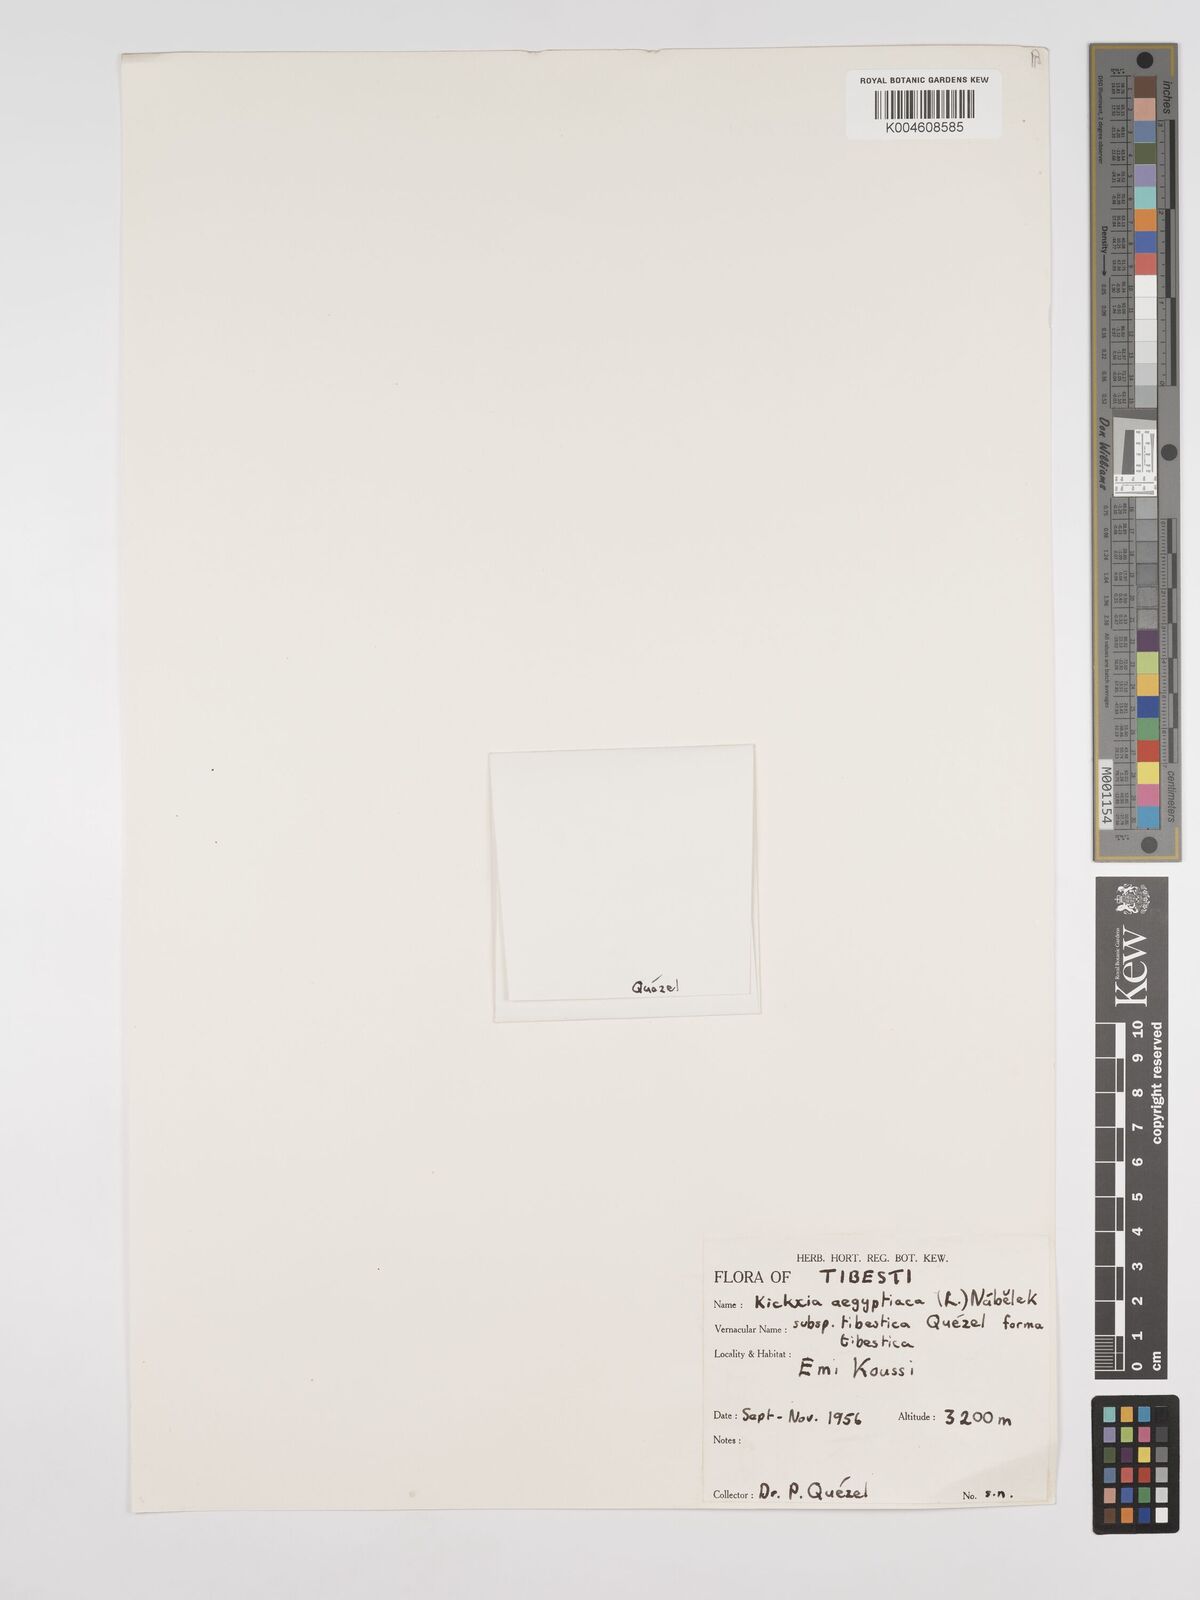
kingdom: Plantae
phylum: Tracheophyta
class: Magnoliopsida
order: Lamiales
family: Plantaginaceae
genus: Kickxia
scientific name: Kickxia aegyptiaca
